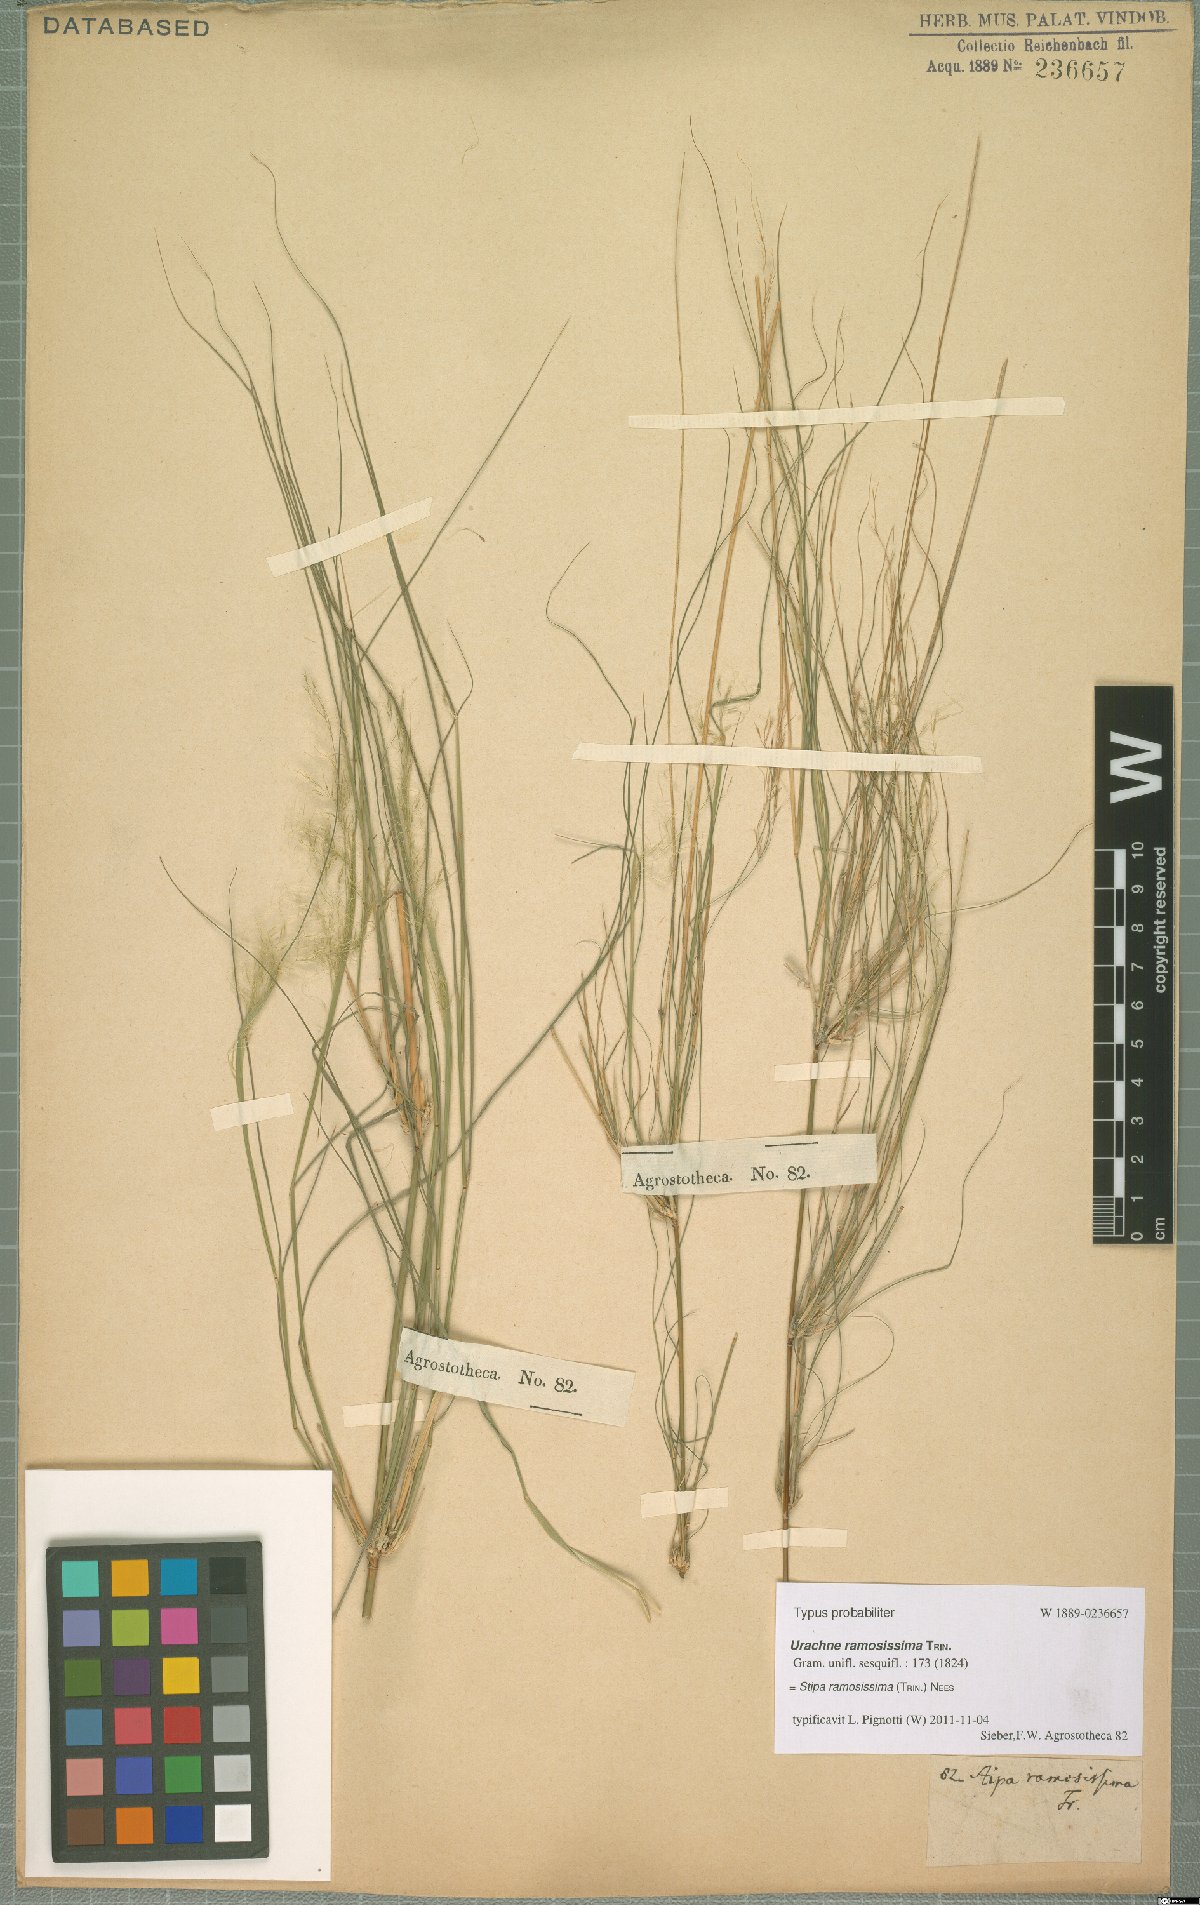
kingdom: Plantae
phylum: Tracheophyta
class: Liliopsida
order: Poales
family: Poaceae
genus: Austrostipa
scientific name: Austrostipa ramosissima
